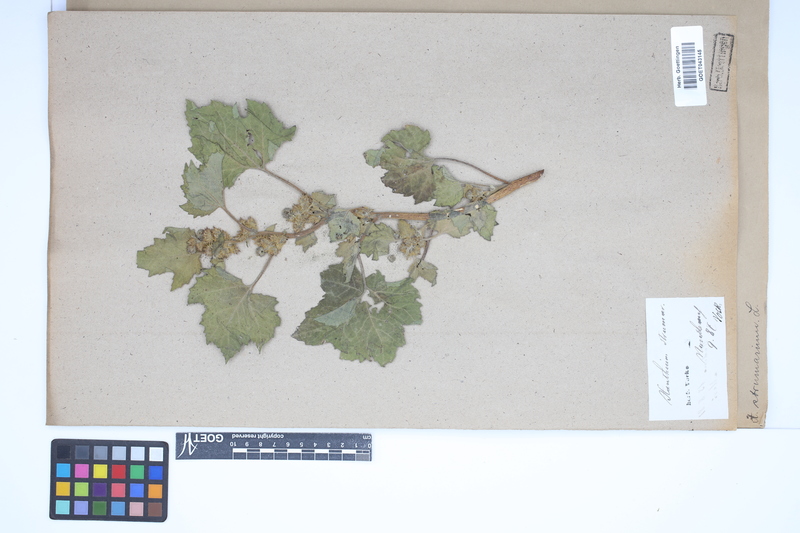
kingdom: Plantae
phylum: Tracheophyta
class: Magnoliopsida
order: Asterales
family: Asteraceae
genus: Xanthium
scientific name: Xanthium strumarium
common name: Rough cocklebur
